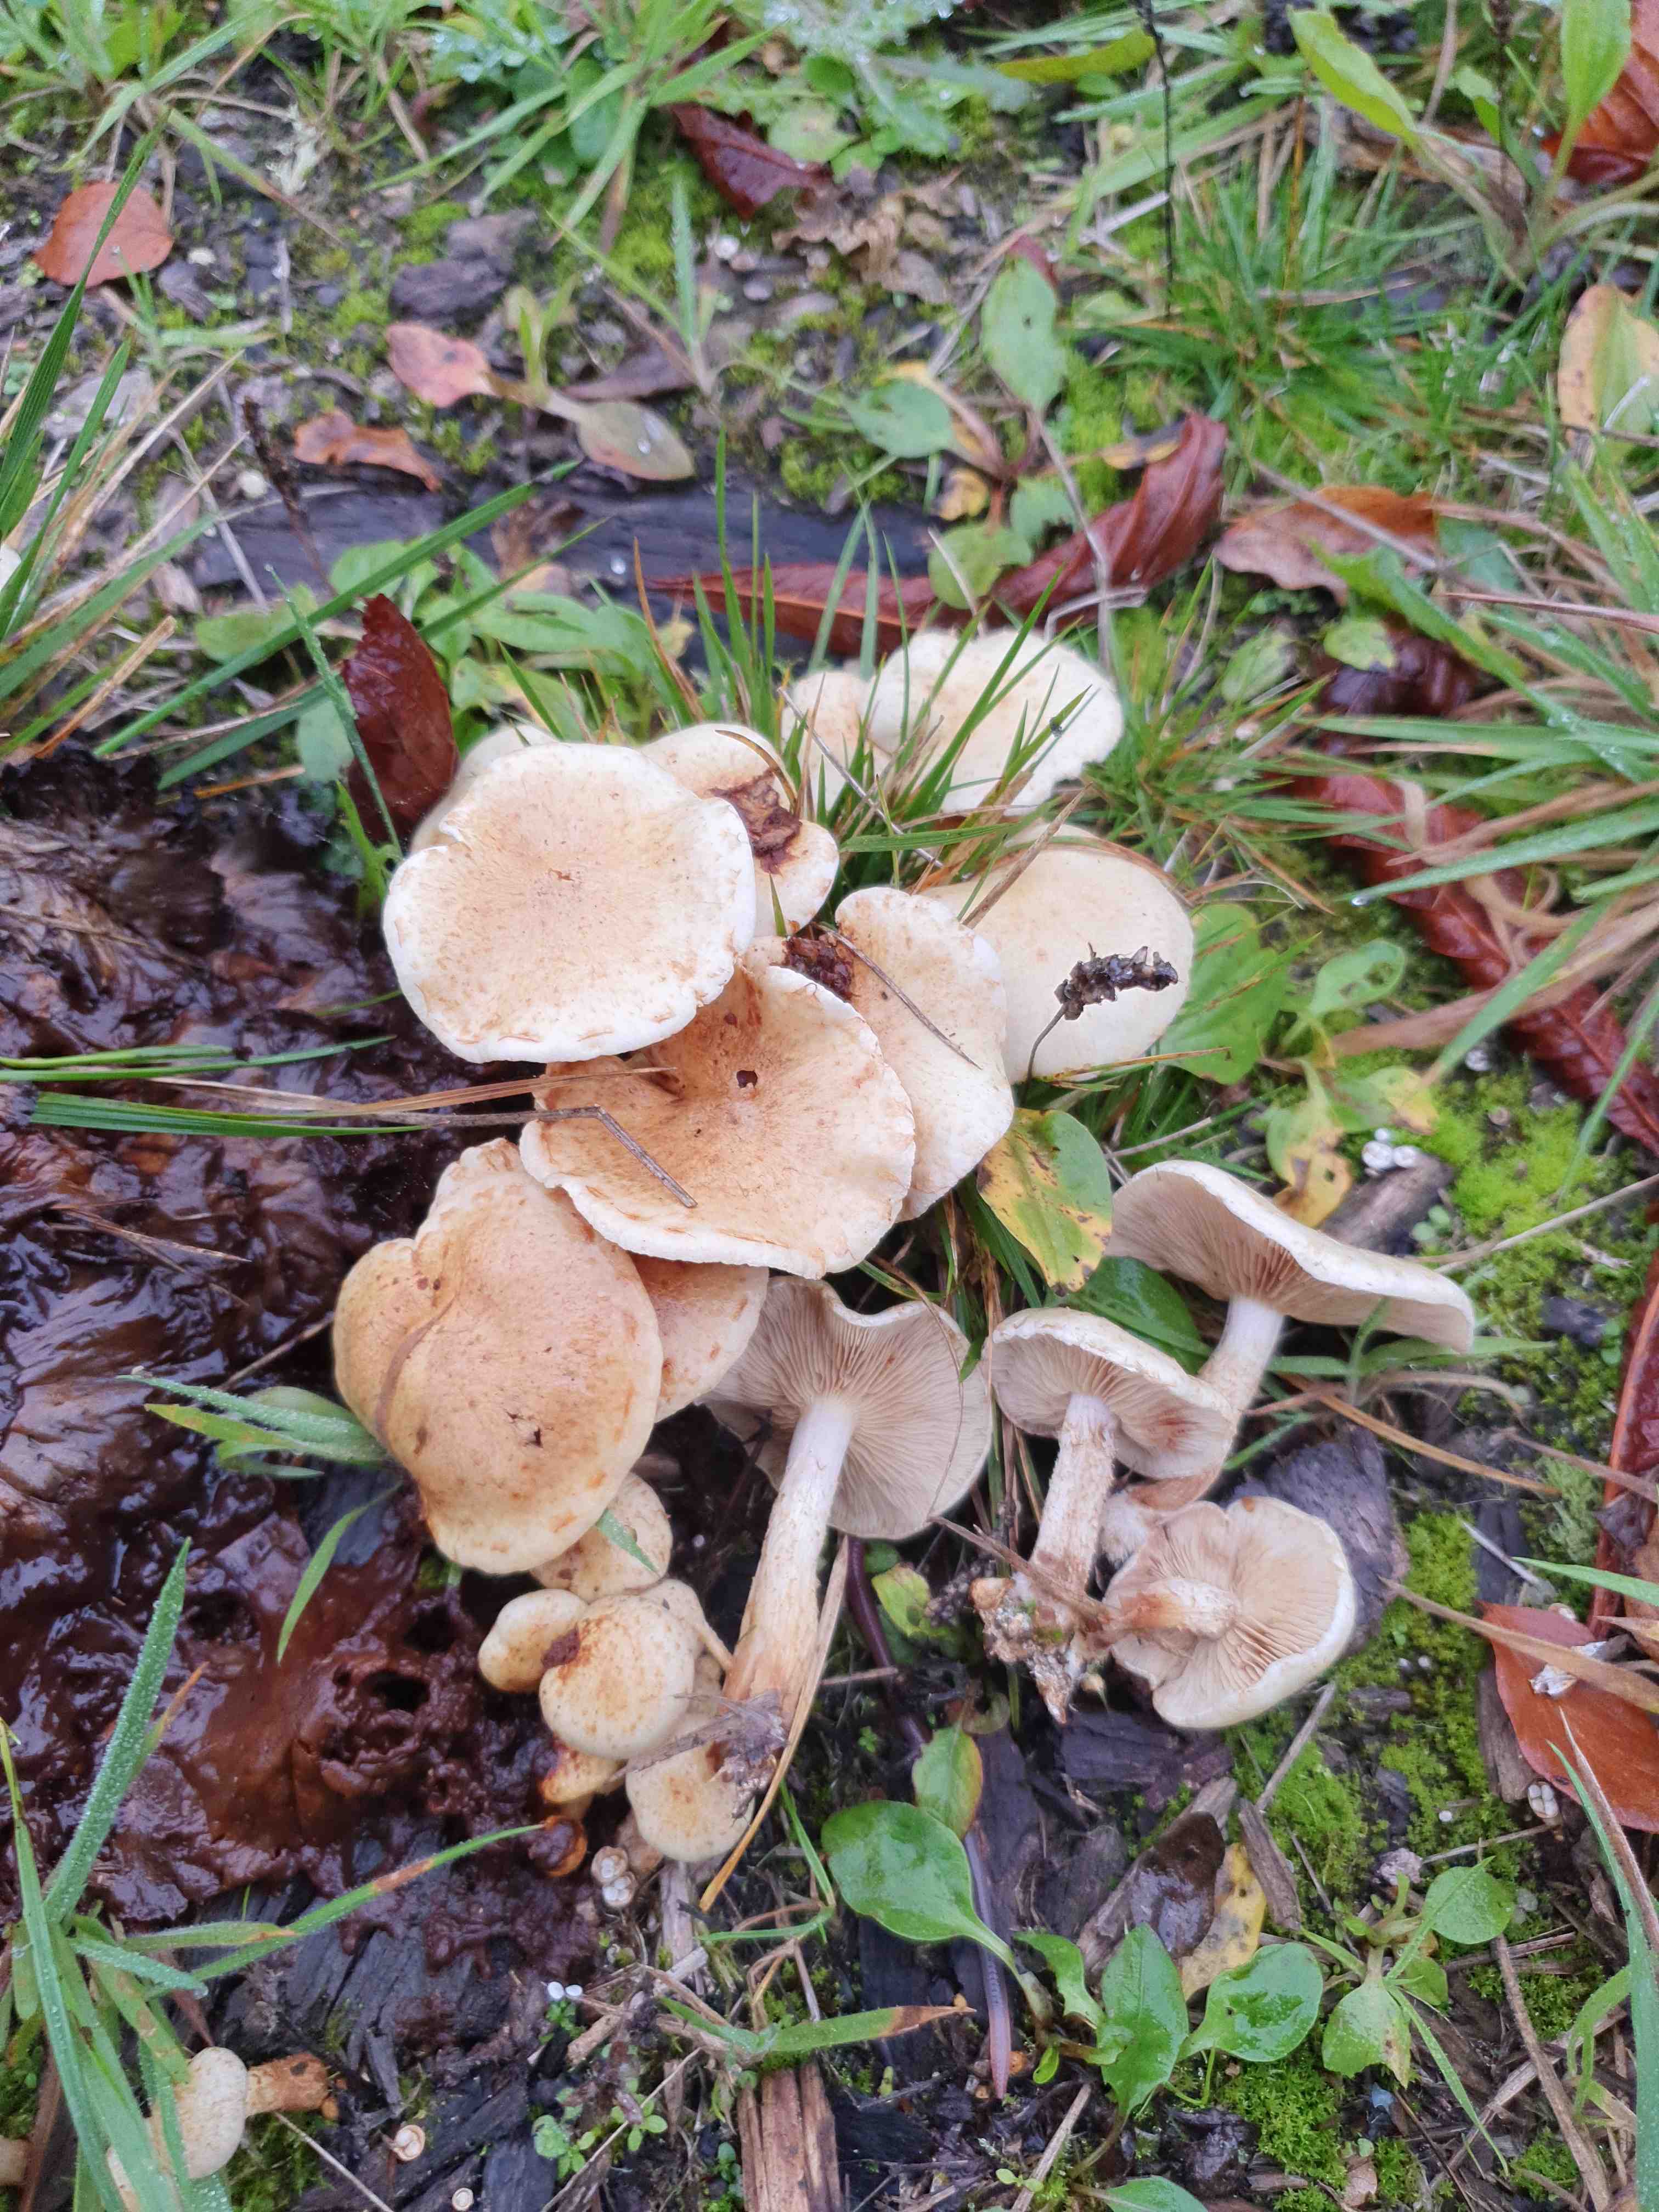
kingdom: Fungi
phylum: Basidiomycota
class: Agaricomycetes
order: Agaricales
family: Strophariaceae
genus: Pholiota
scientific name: Pholiota gummosa
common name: grøngul skælhat
